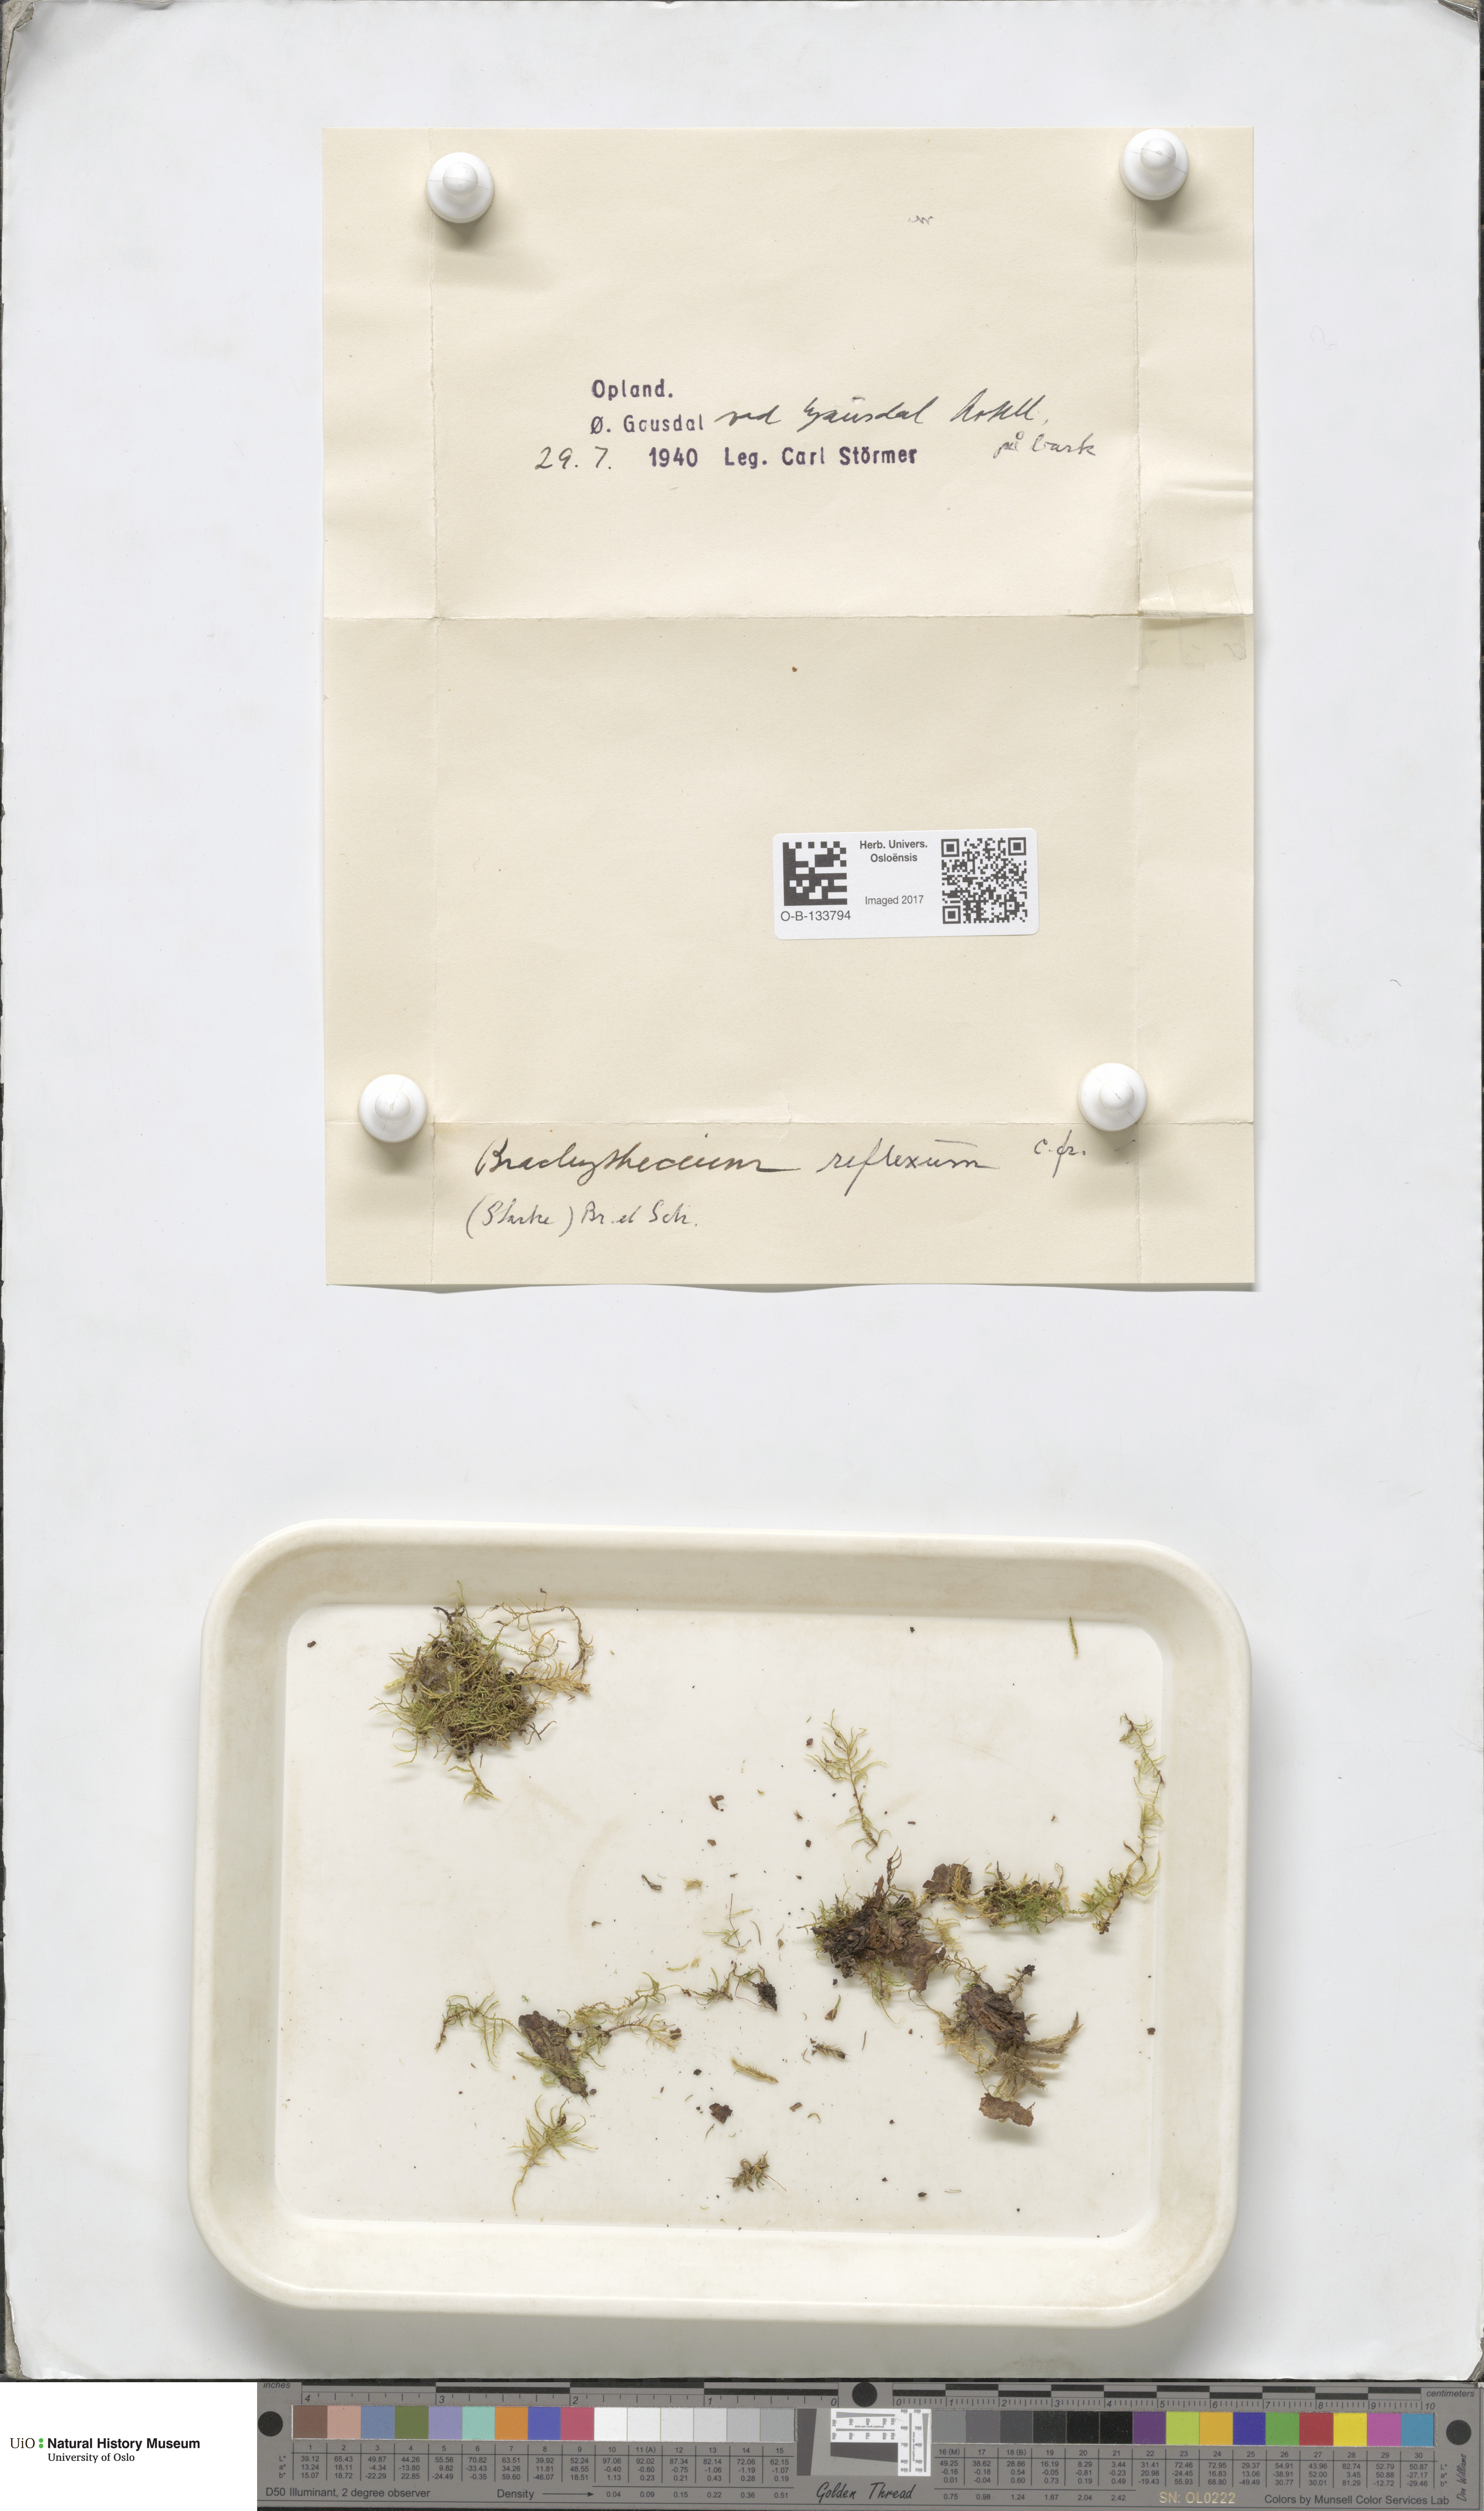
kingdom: Plantae
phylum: Bryophyta
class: Bryopsida
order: Hypnales
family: Brachytheciaceae
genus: Sciuro-hypnum
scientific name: Sciuro-hypnum reflexum
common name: Reflexed feather-moss
